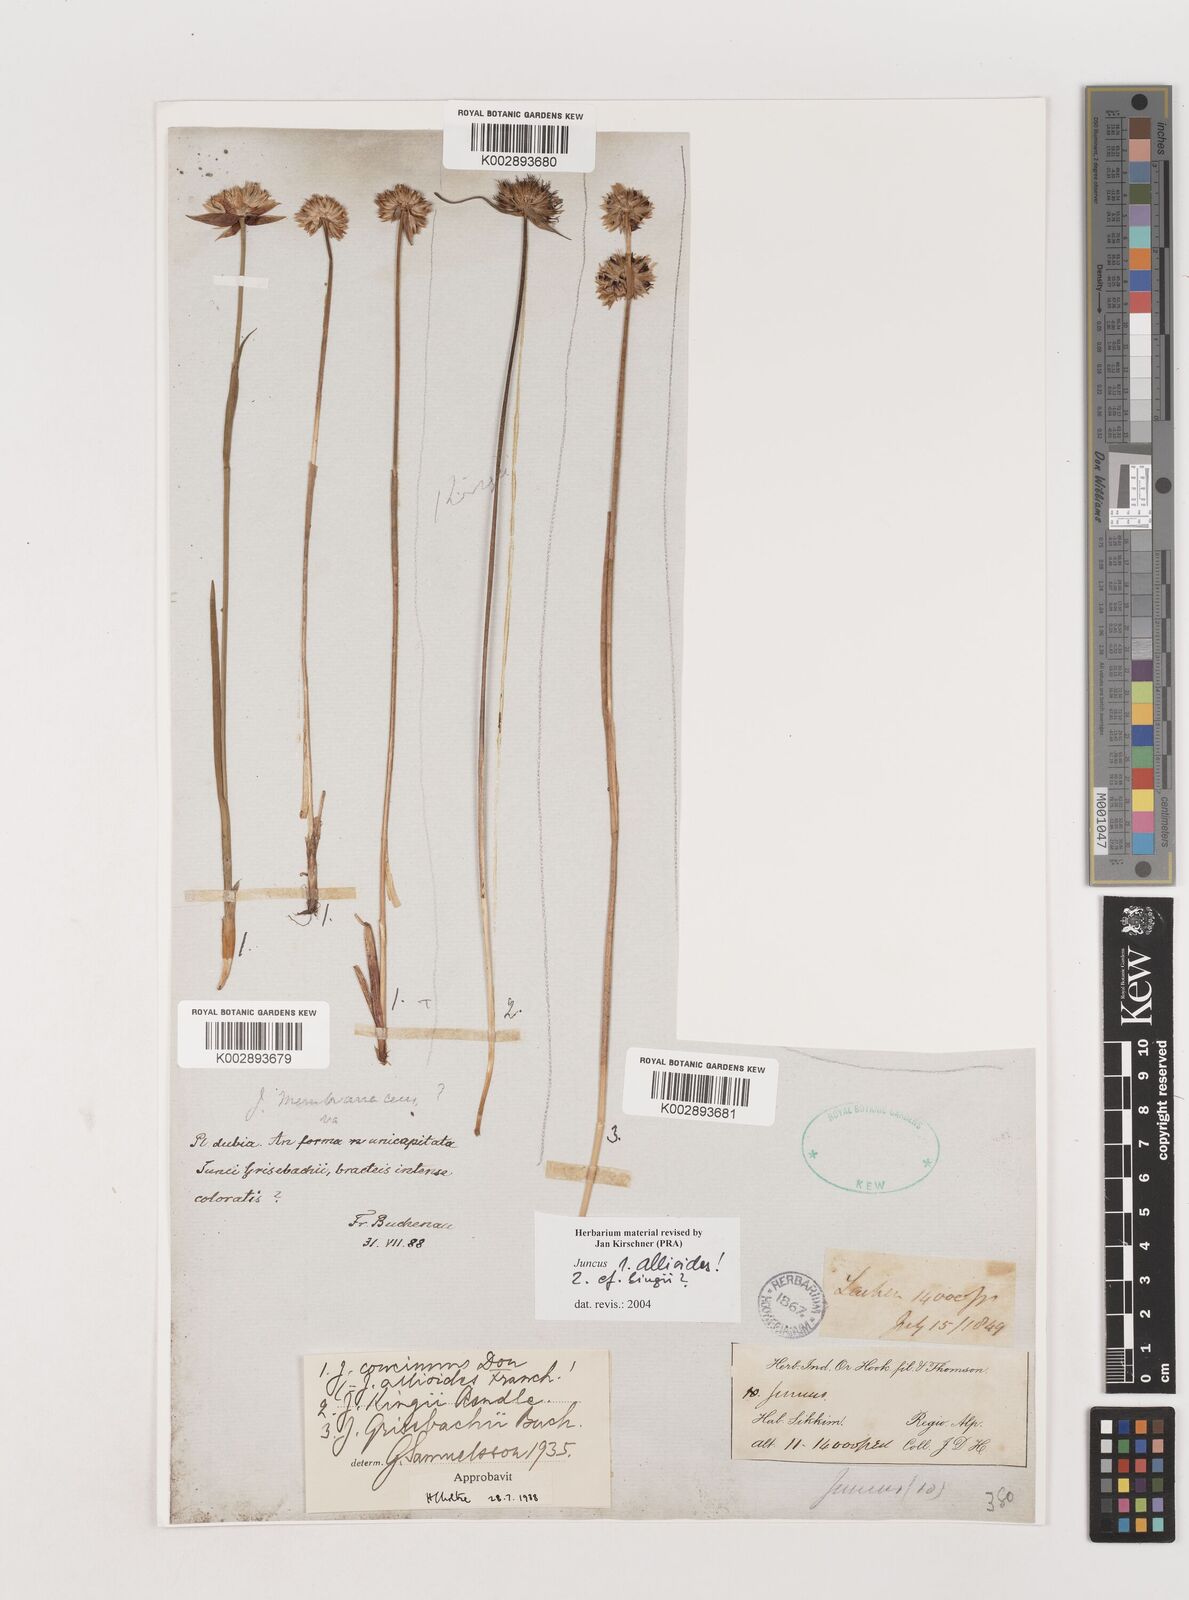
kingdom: Plantae
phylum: Tracheophyta
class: Liliopsida
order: Poales
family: Juncaceae
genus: Juncus
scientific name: Juncus allioides
